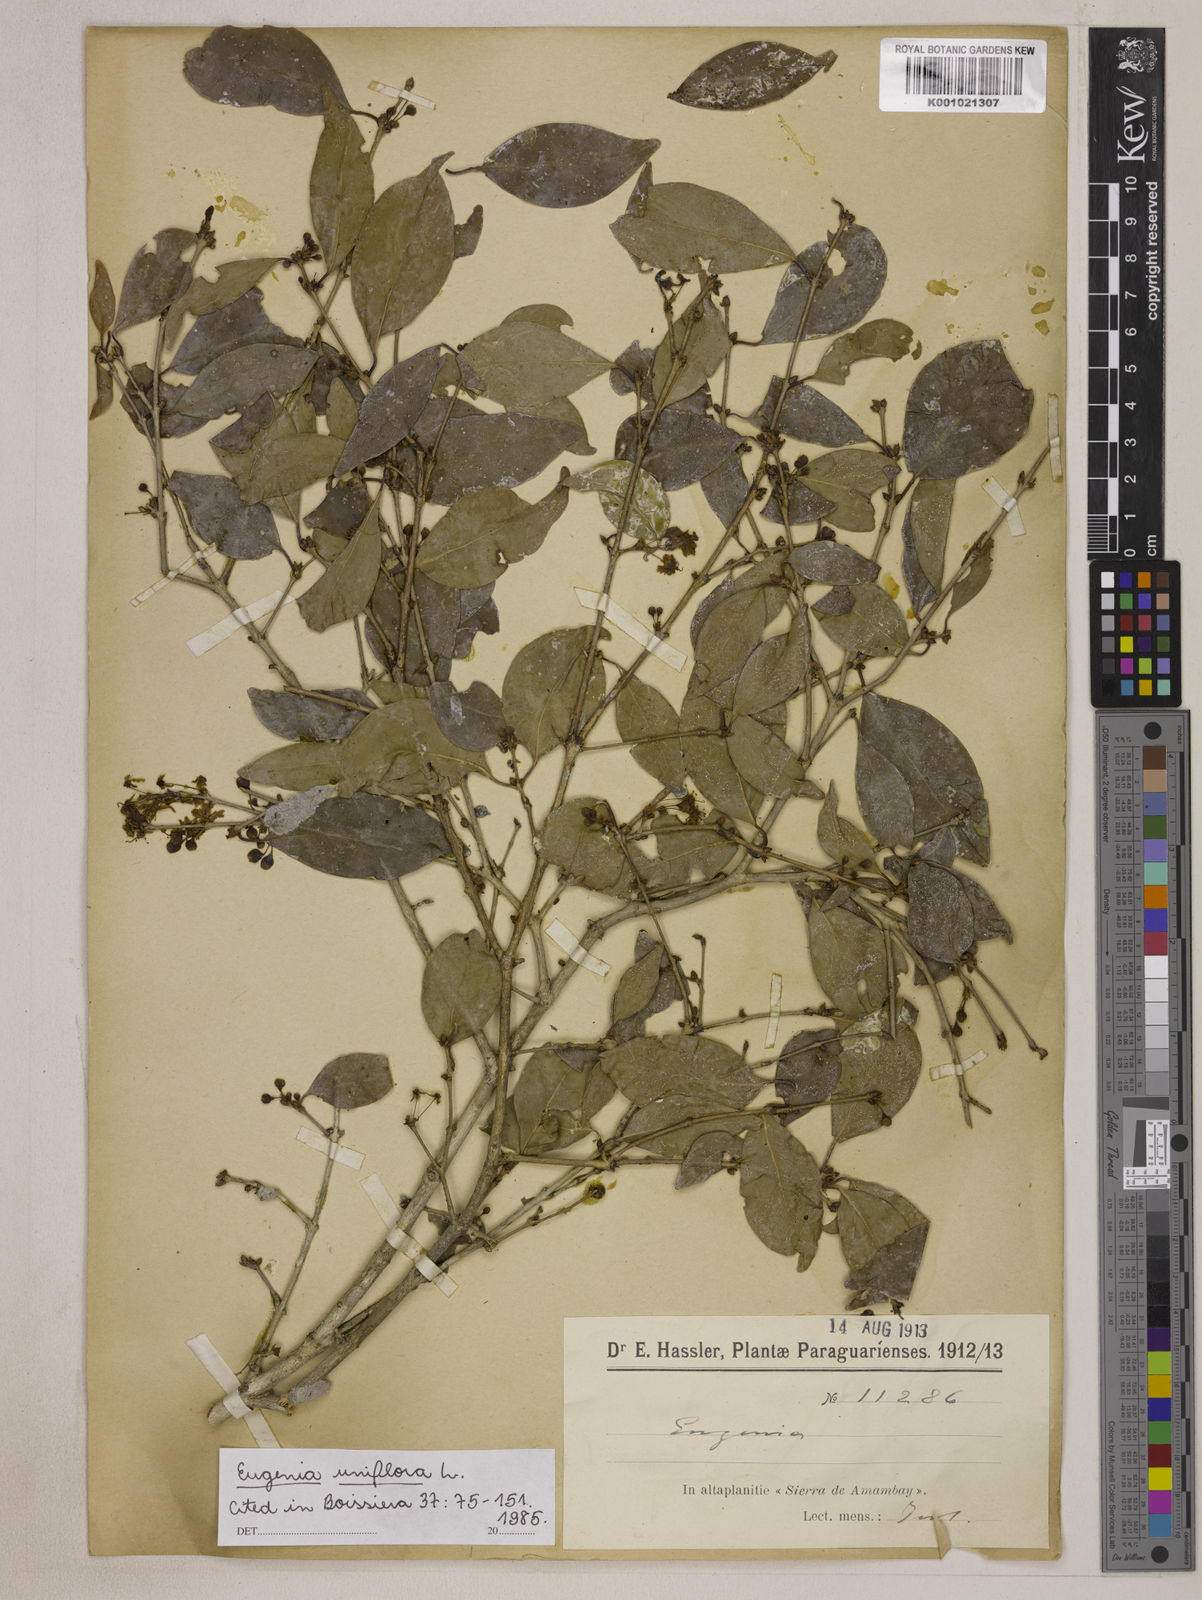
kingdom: Plantae
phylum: Tracheophyta
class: Magnoliopsida
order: Myrtales
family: Myrtaceae
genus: Eugenia
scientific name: Eugenia uniflora
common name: Surinam cherry
